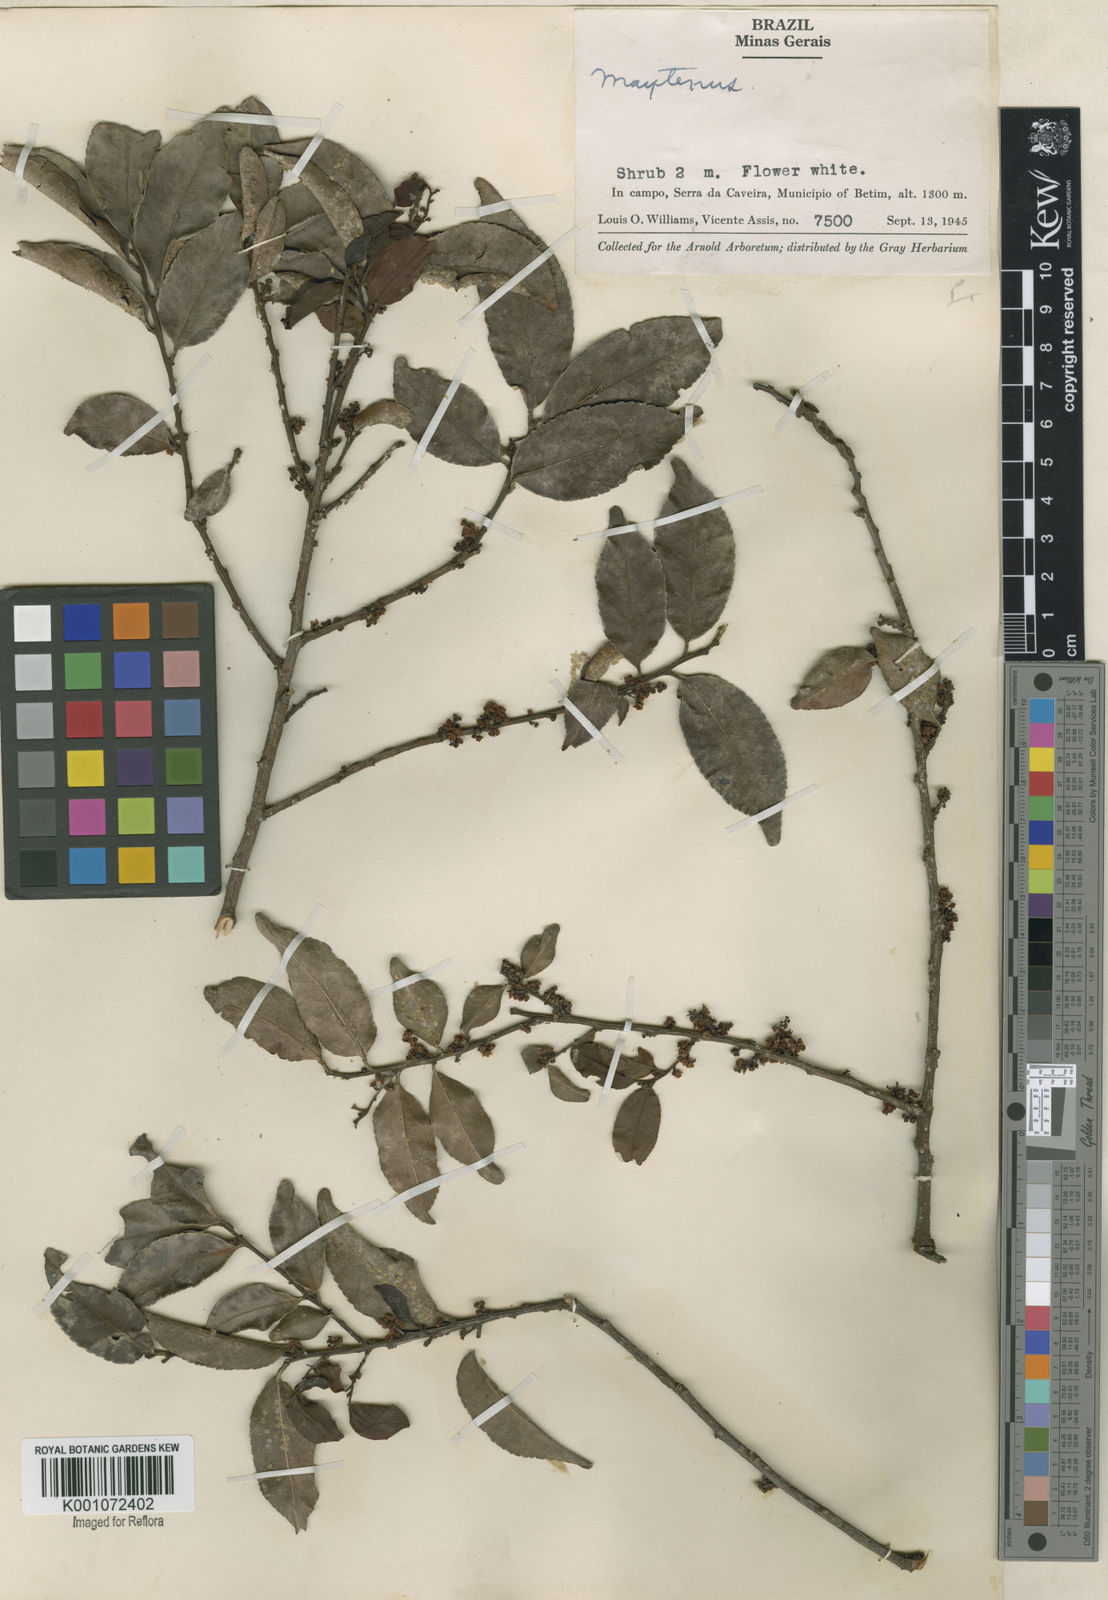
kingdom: Plantae
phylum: Tracheophyta
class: Magnoliopsida
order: Celastrales
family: Celastraceae
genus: Maytenus
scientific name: Maytenus
